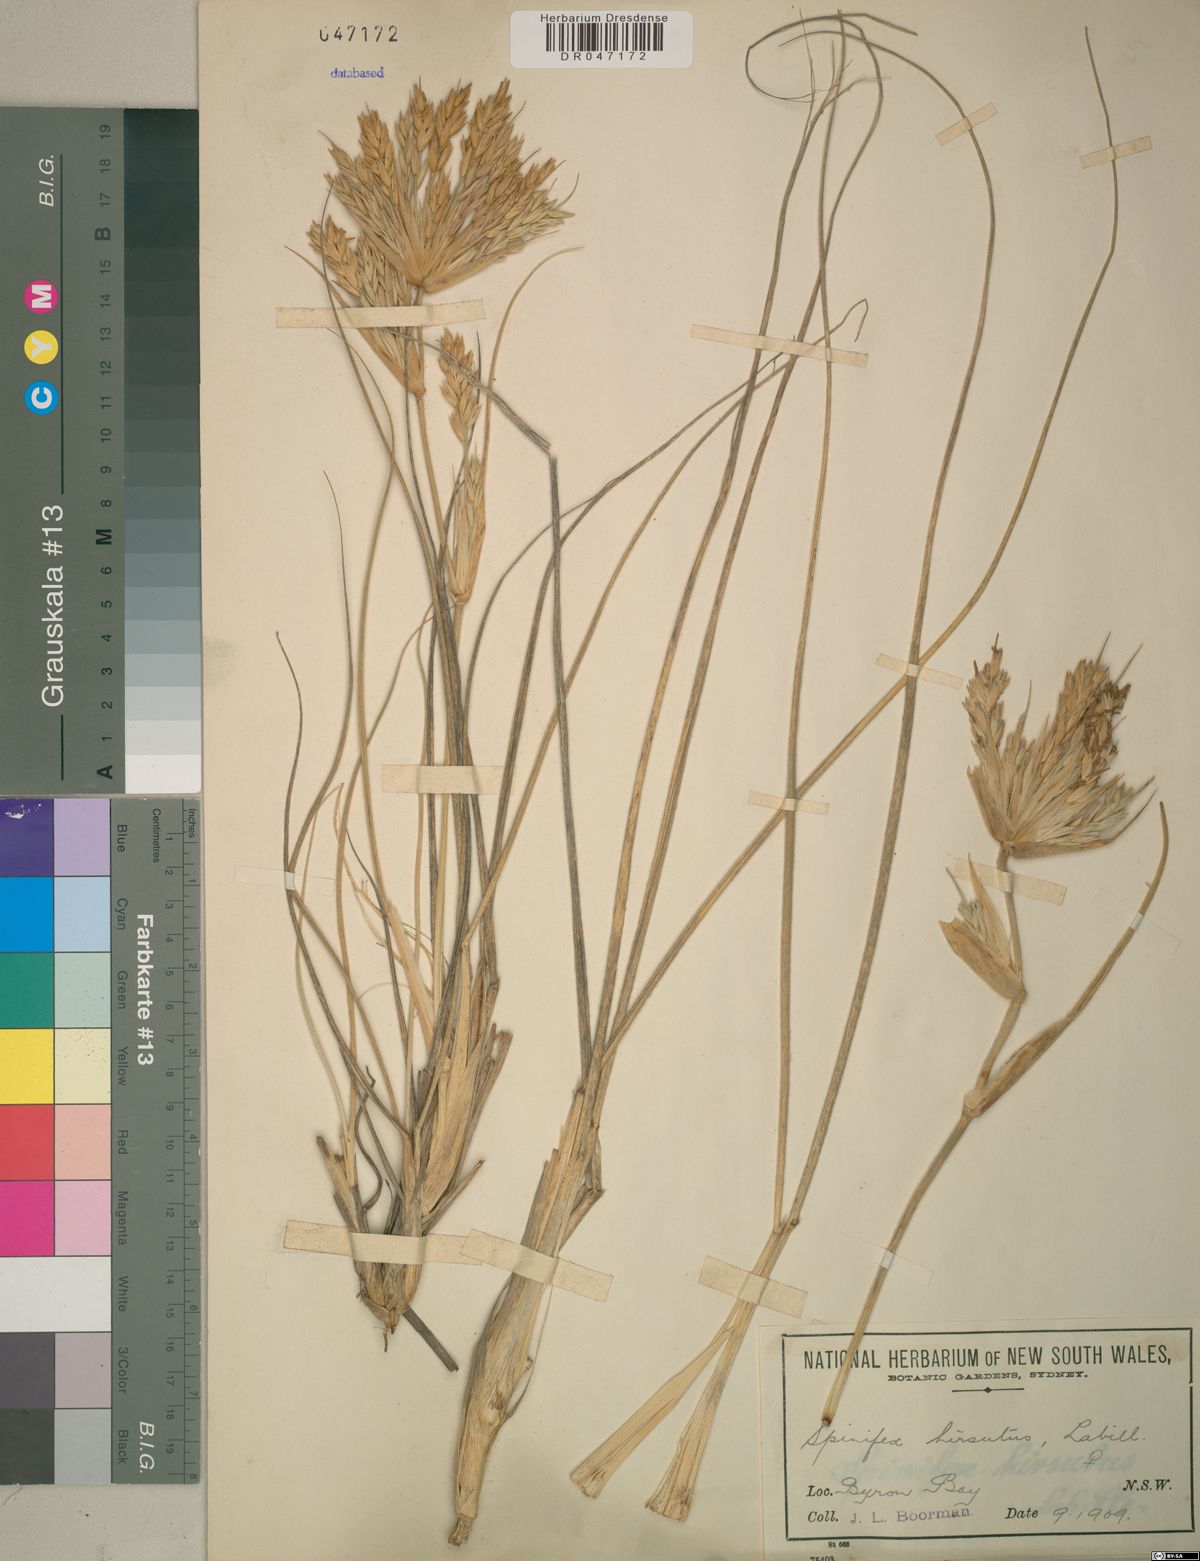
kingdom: Plantae
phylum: Tracheophyta
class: Liliopsida
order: Poales
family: Poaceae
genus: Spinifex
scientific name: Spinifex hirsutus
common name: Hairy spinifex
